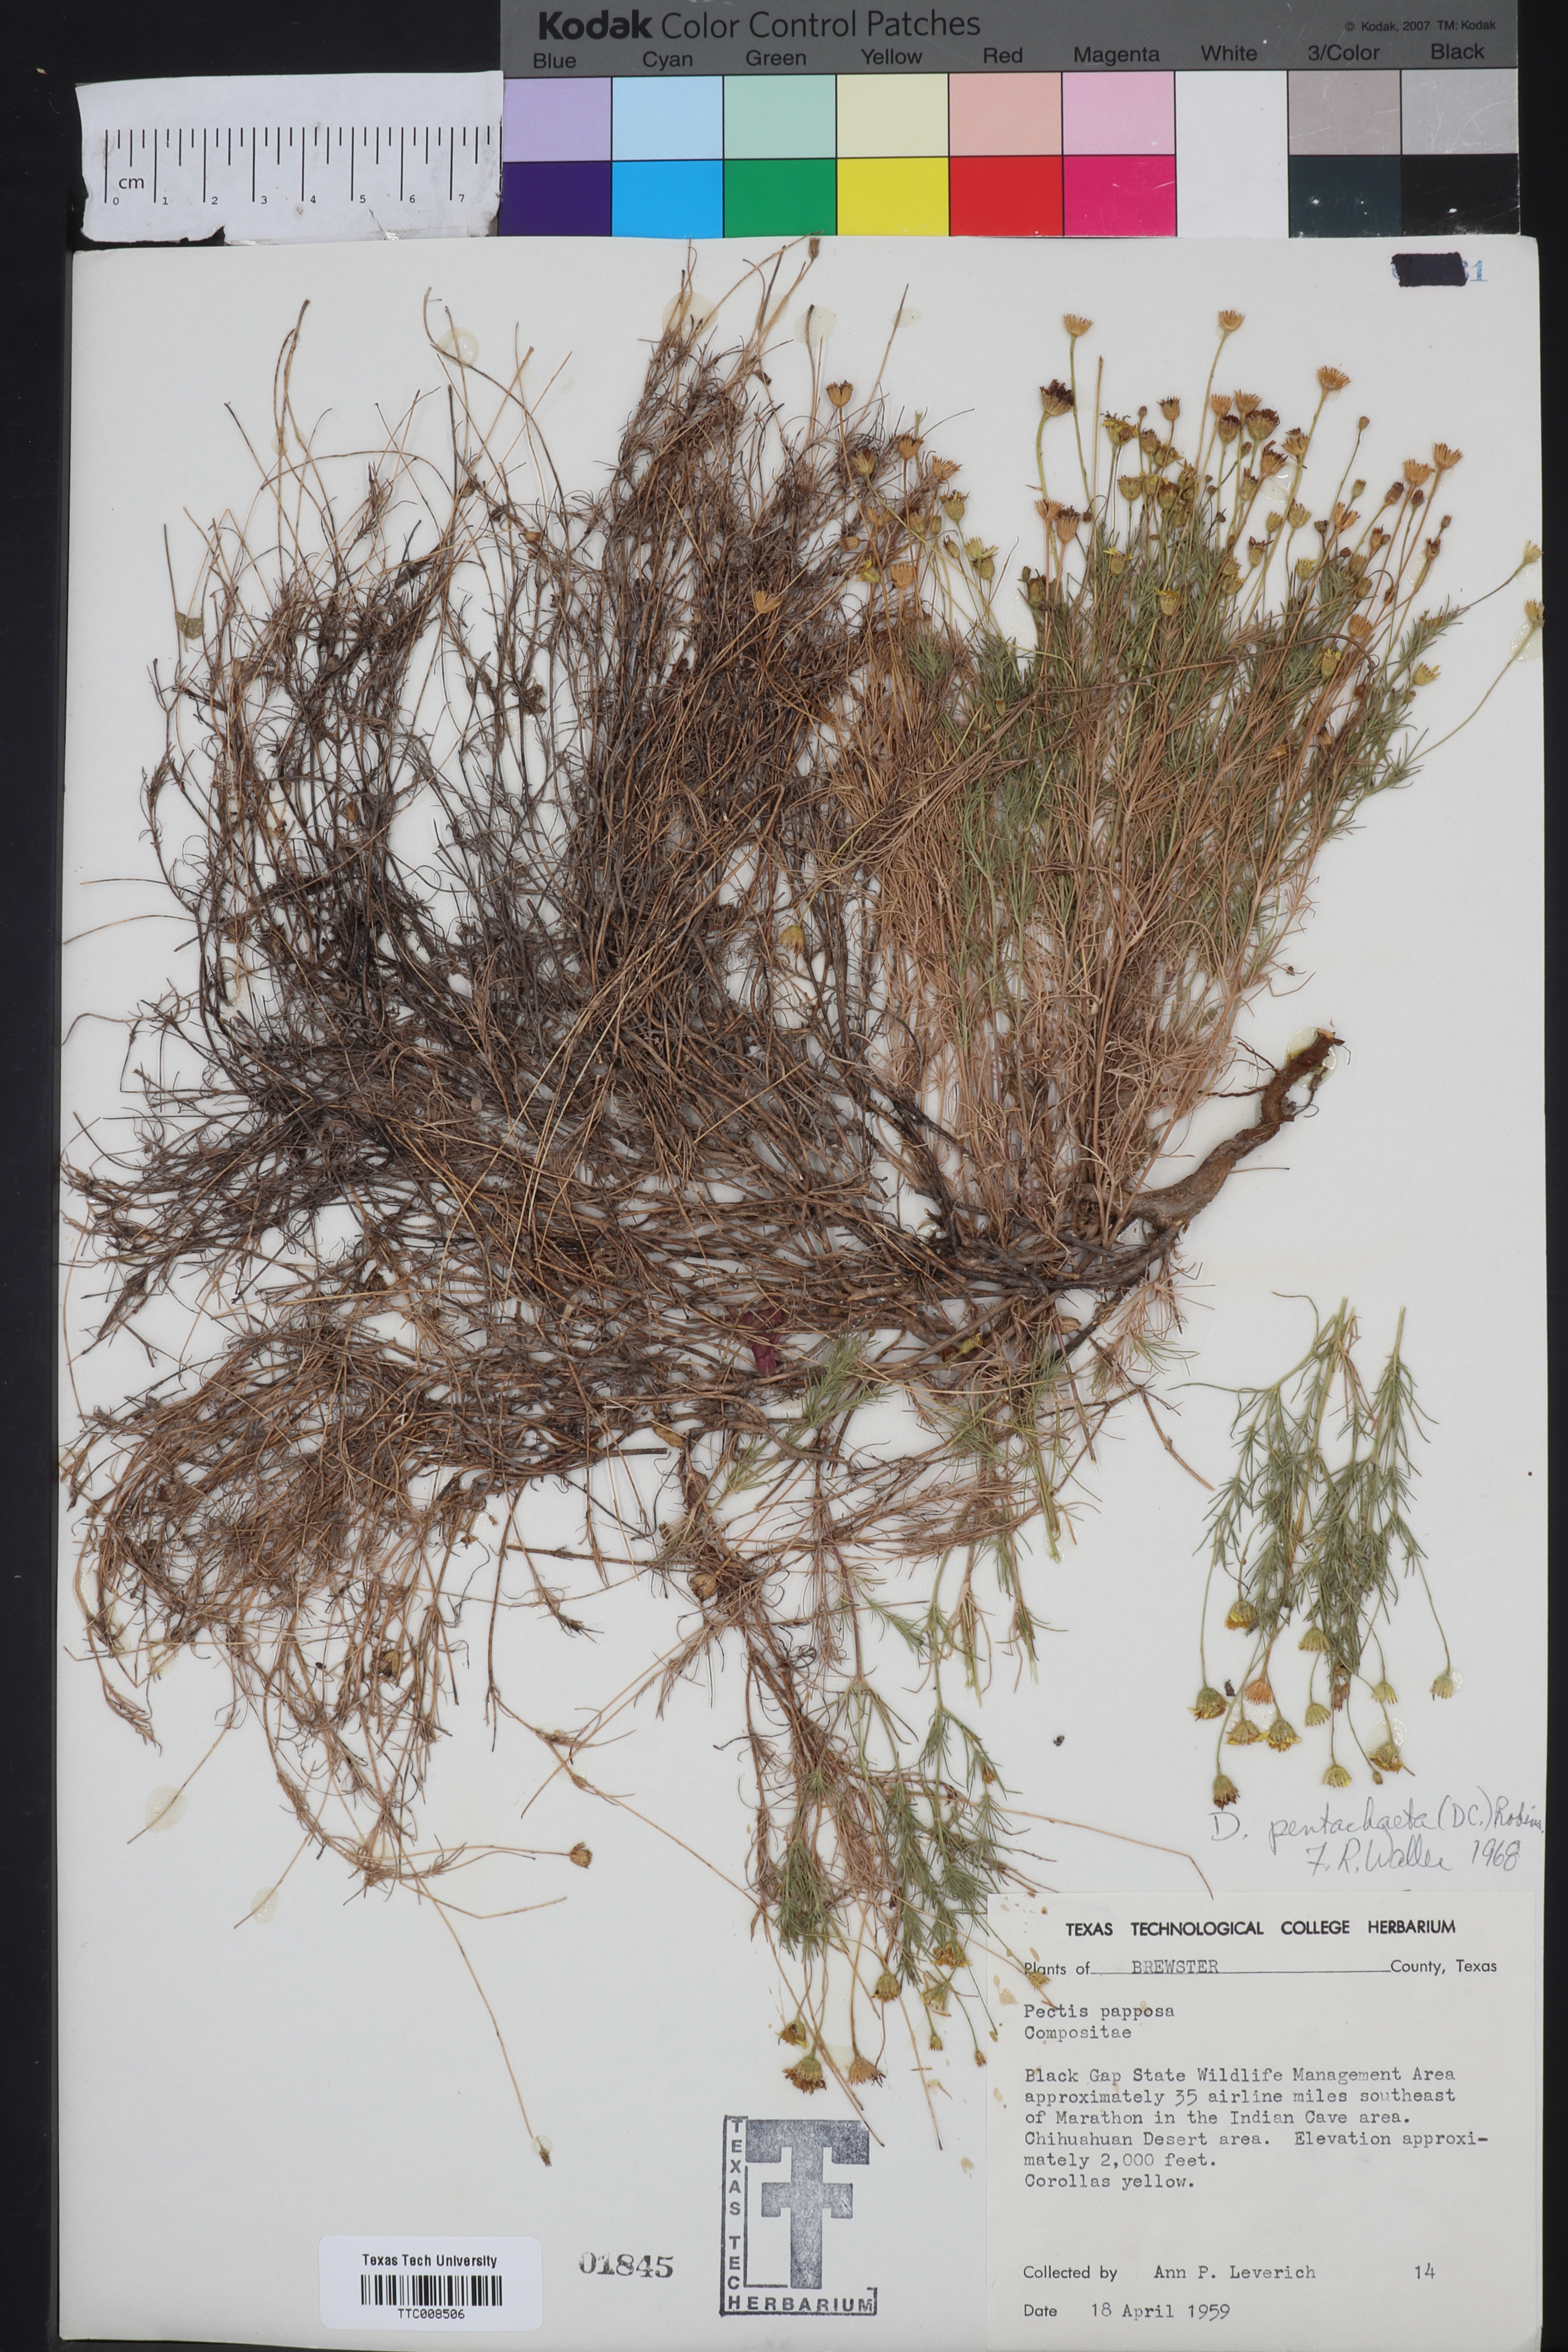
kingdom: Plantae
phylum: Tracheophyta
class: Magnoliopsida
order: Asterales
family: Asteraceae
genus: Thymophylla
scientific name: Thymophylla pentachaeta
